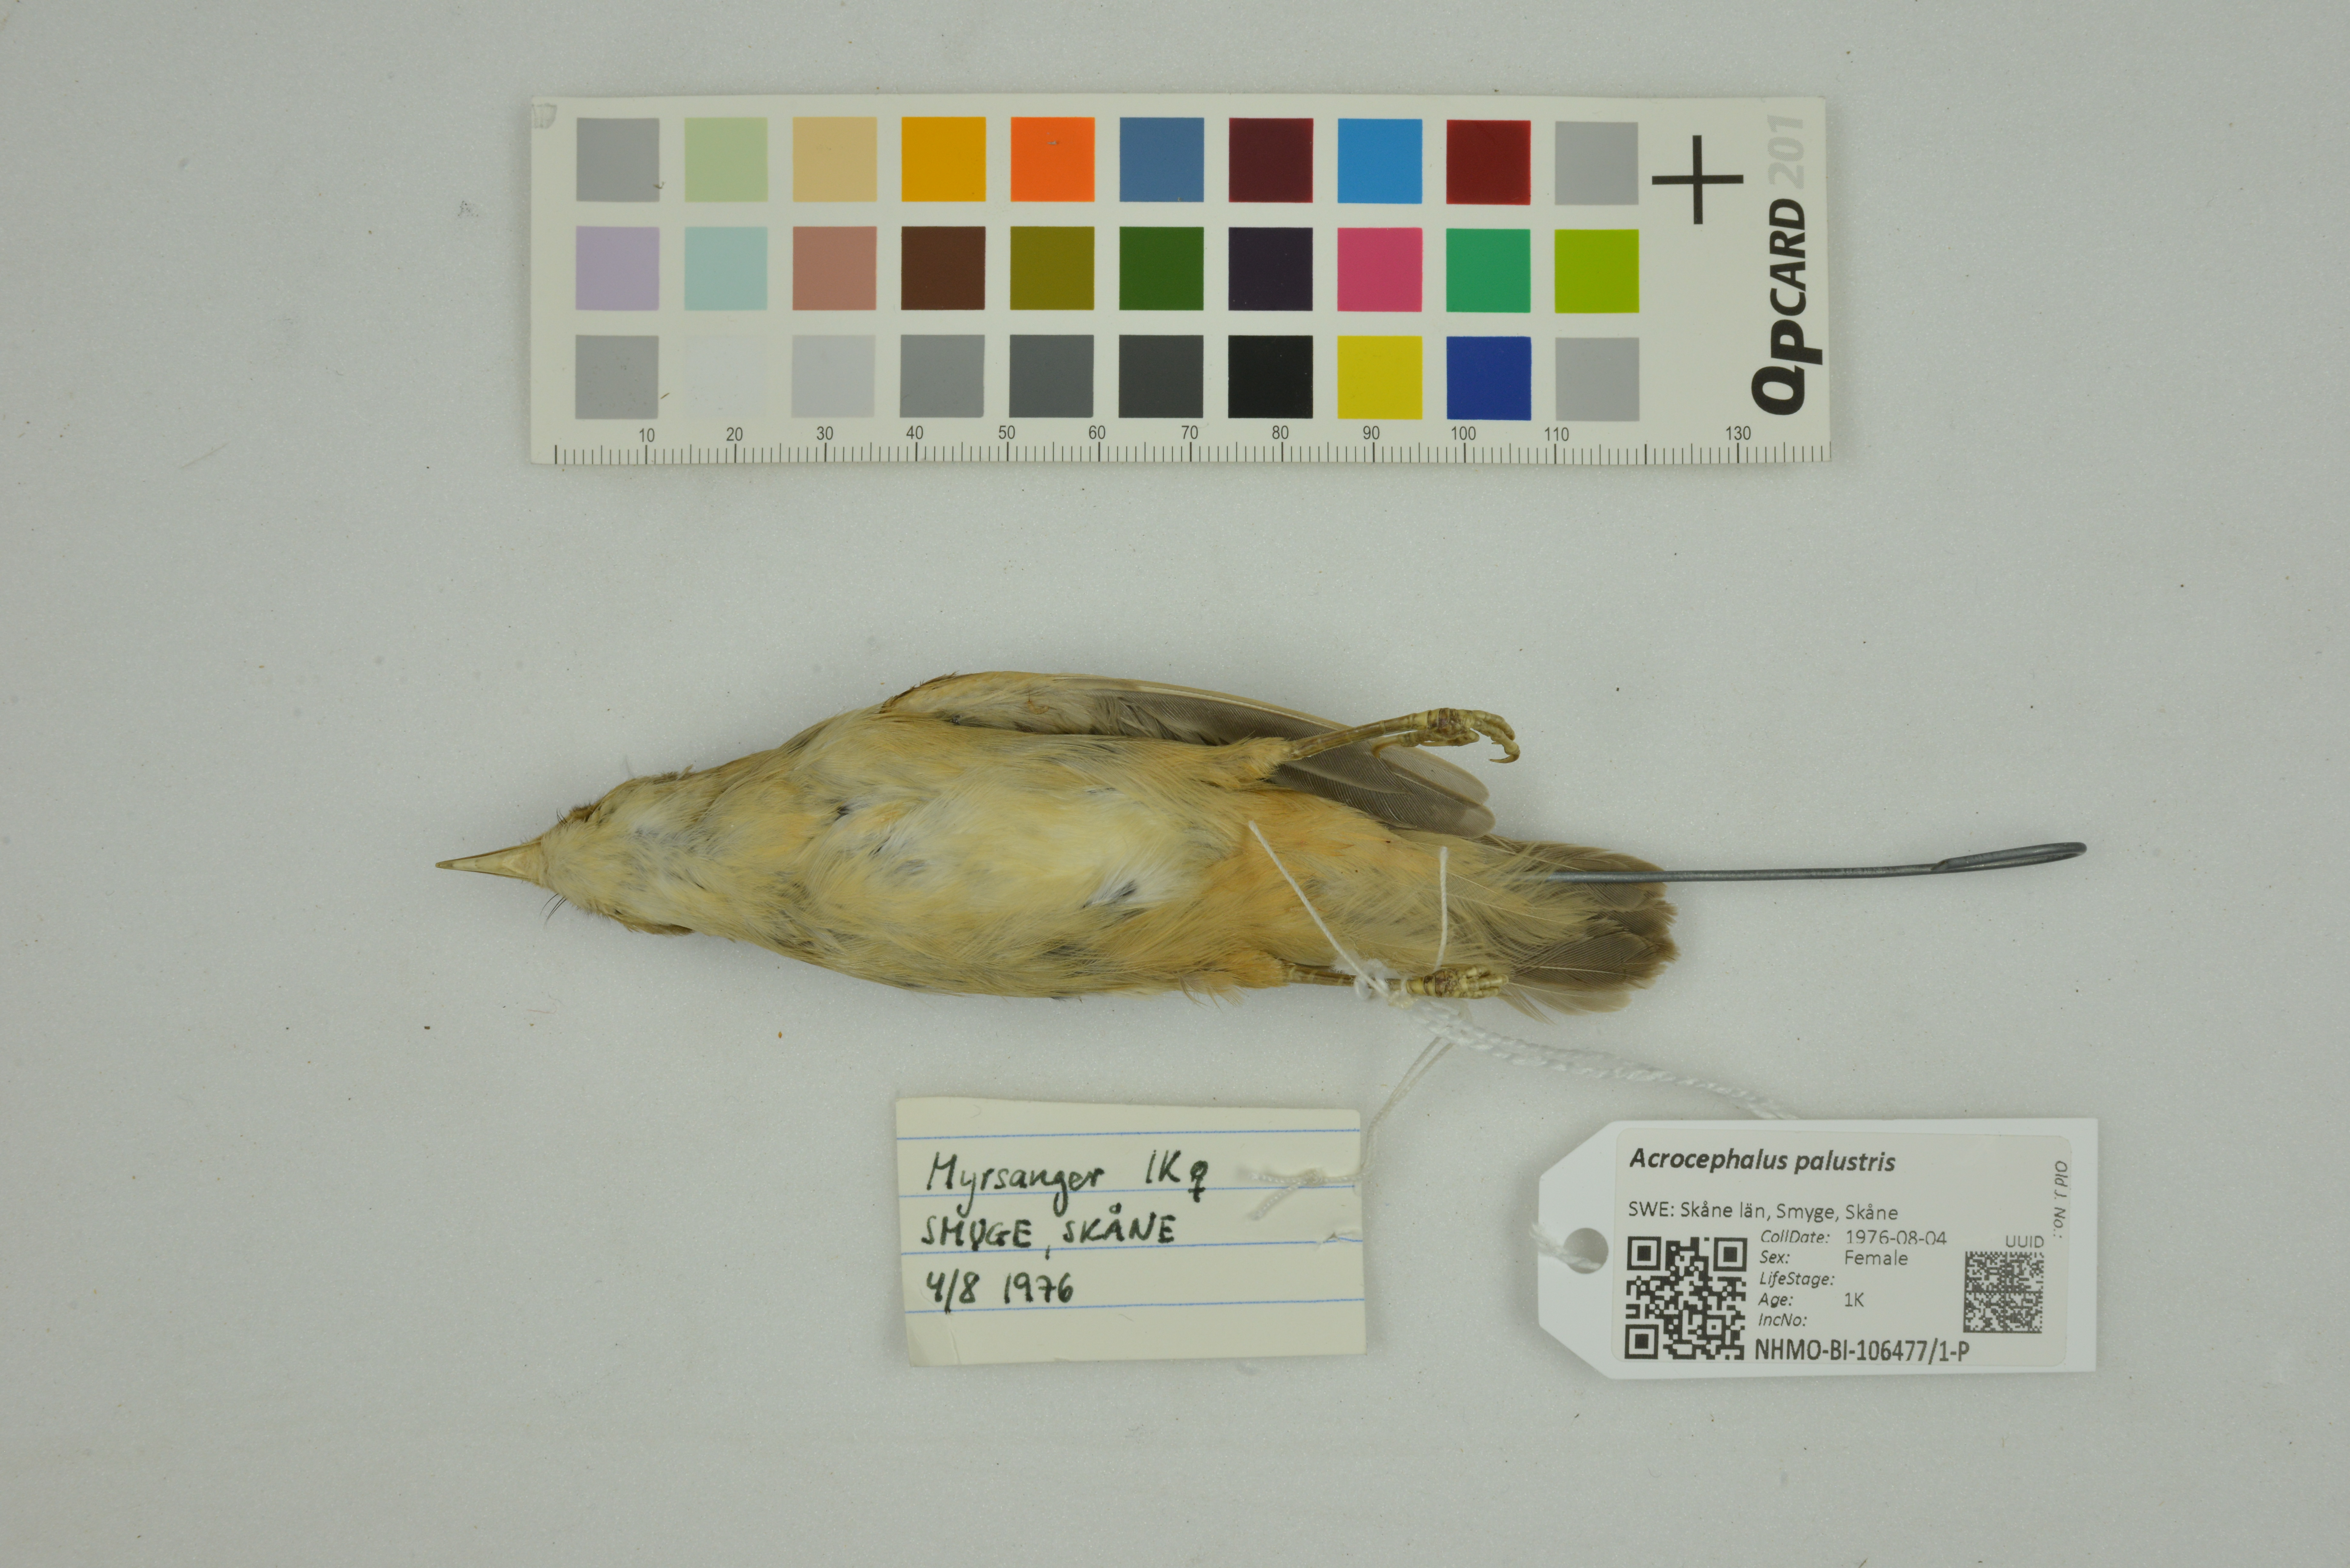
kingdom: Animalia
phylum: Chordata
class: Aves
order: Passeriformes
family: Acrocephalidae
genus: Acrocephalus
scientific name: Acrocephalus palustris
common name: Marsh warbler
